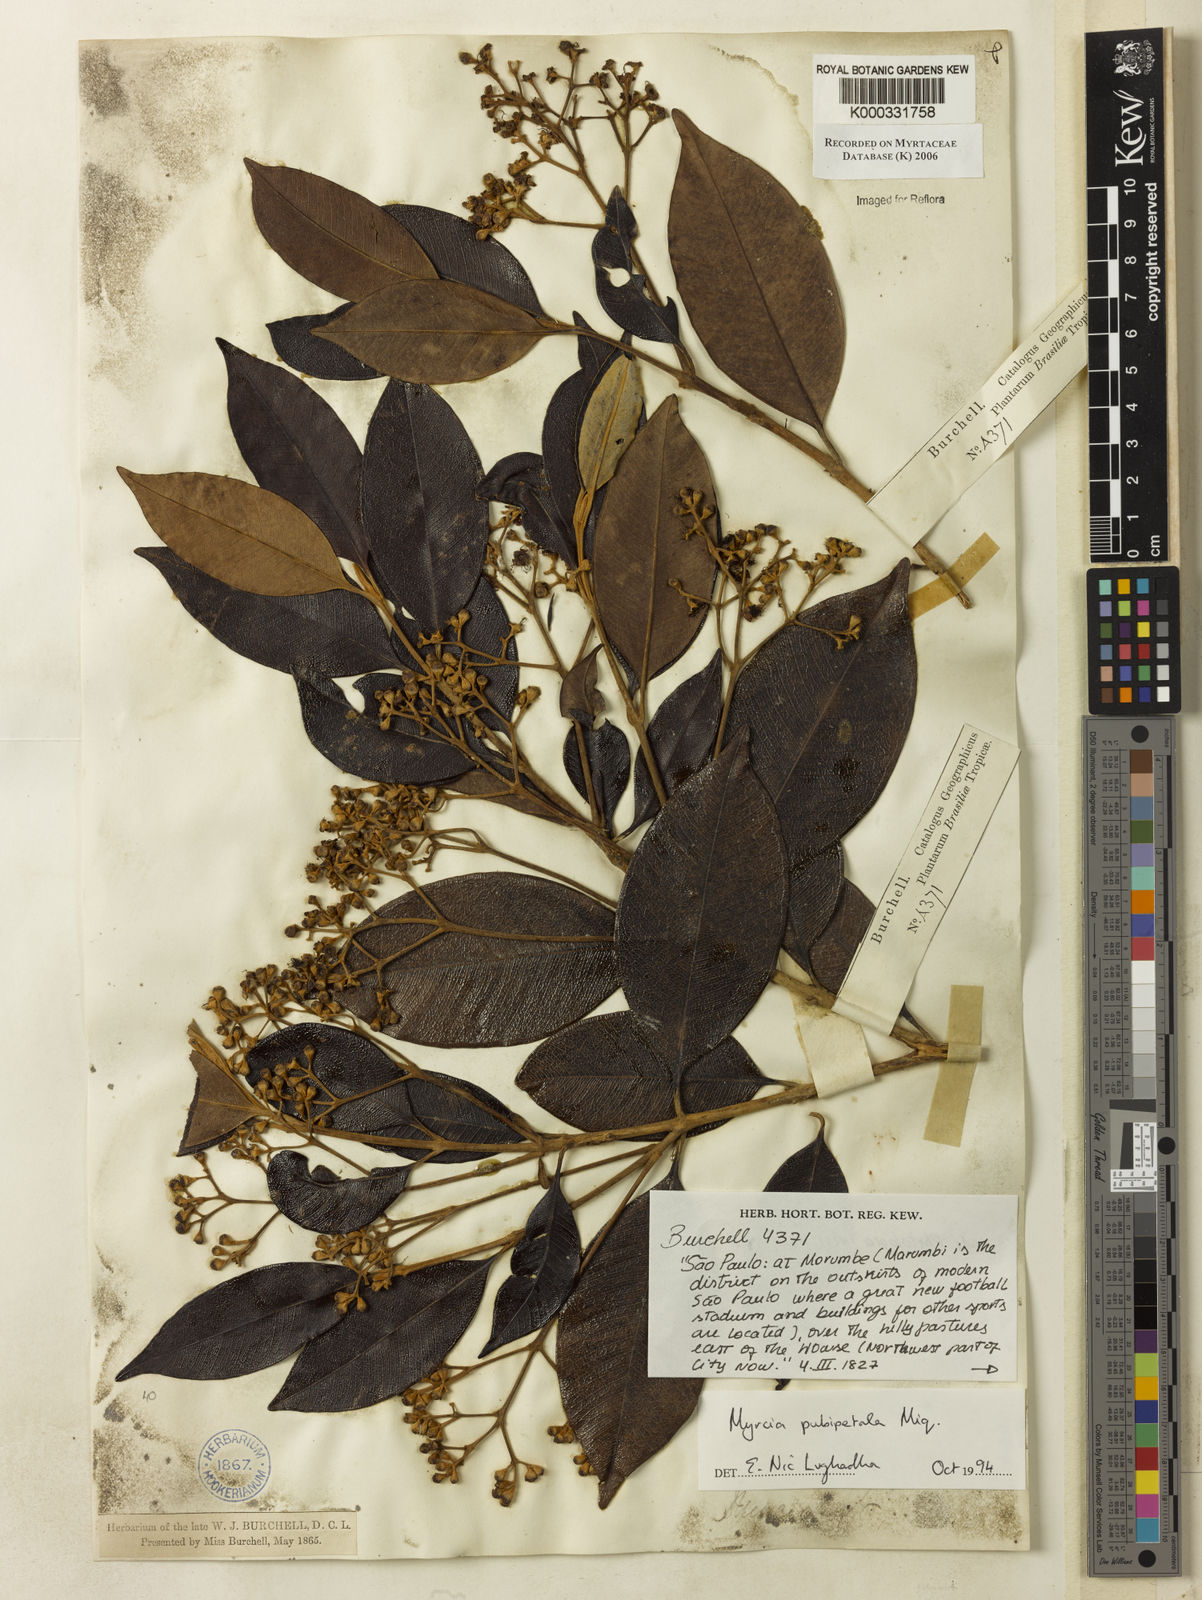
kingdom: Plantae
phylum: Tracheophyta
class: Magnoliopsida
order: Myrtales
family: Myrtaceae
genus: Myrcia
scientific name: Myrcia pubipetala
